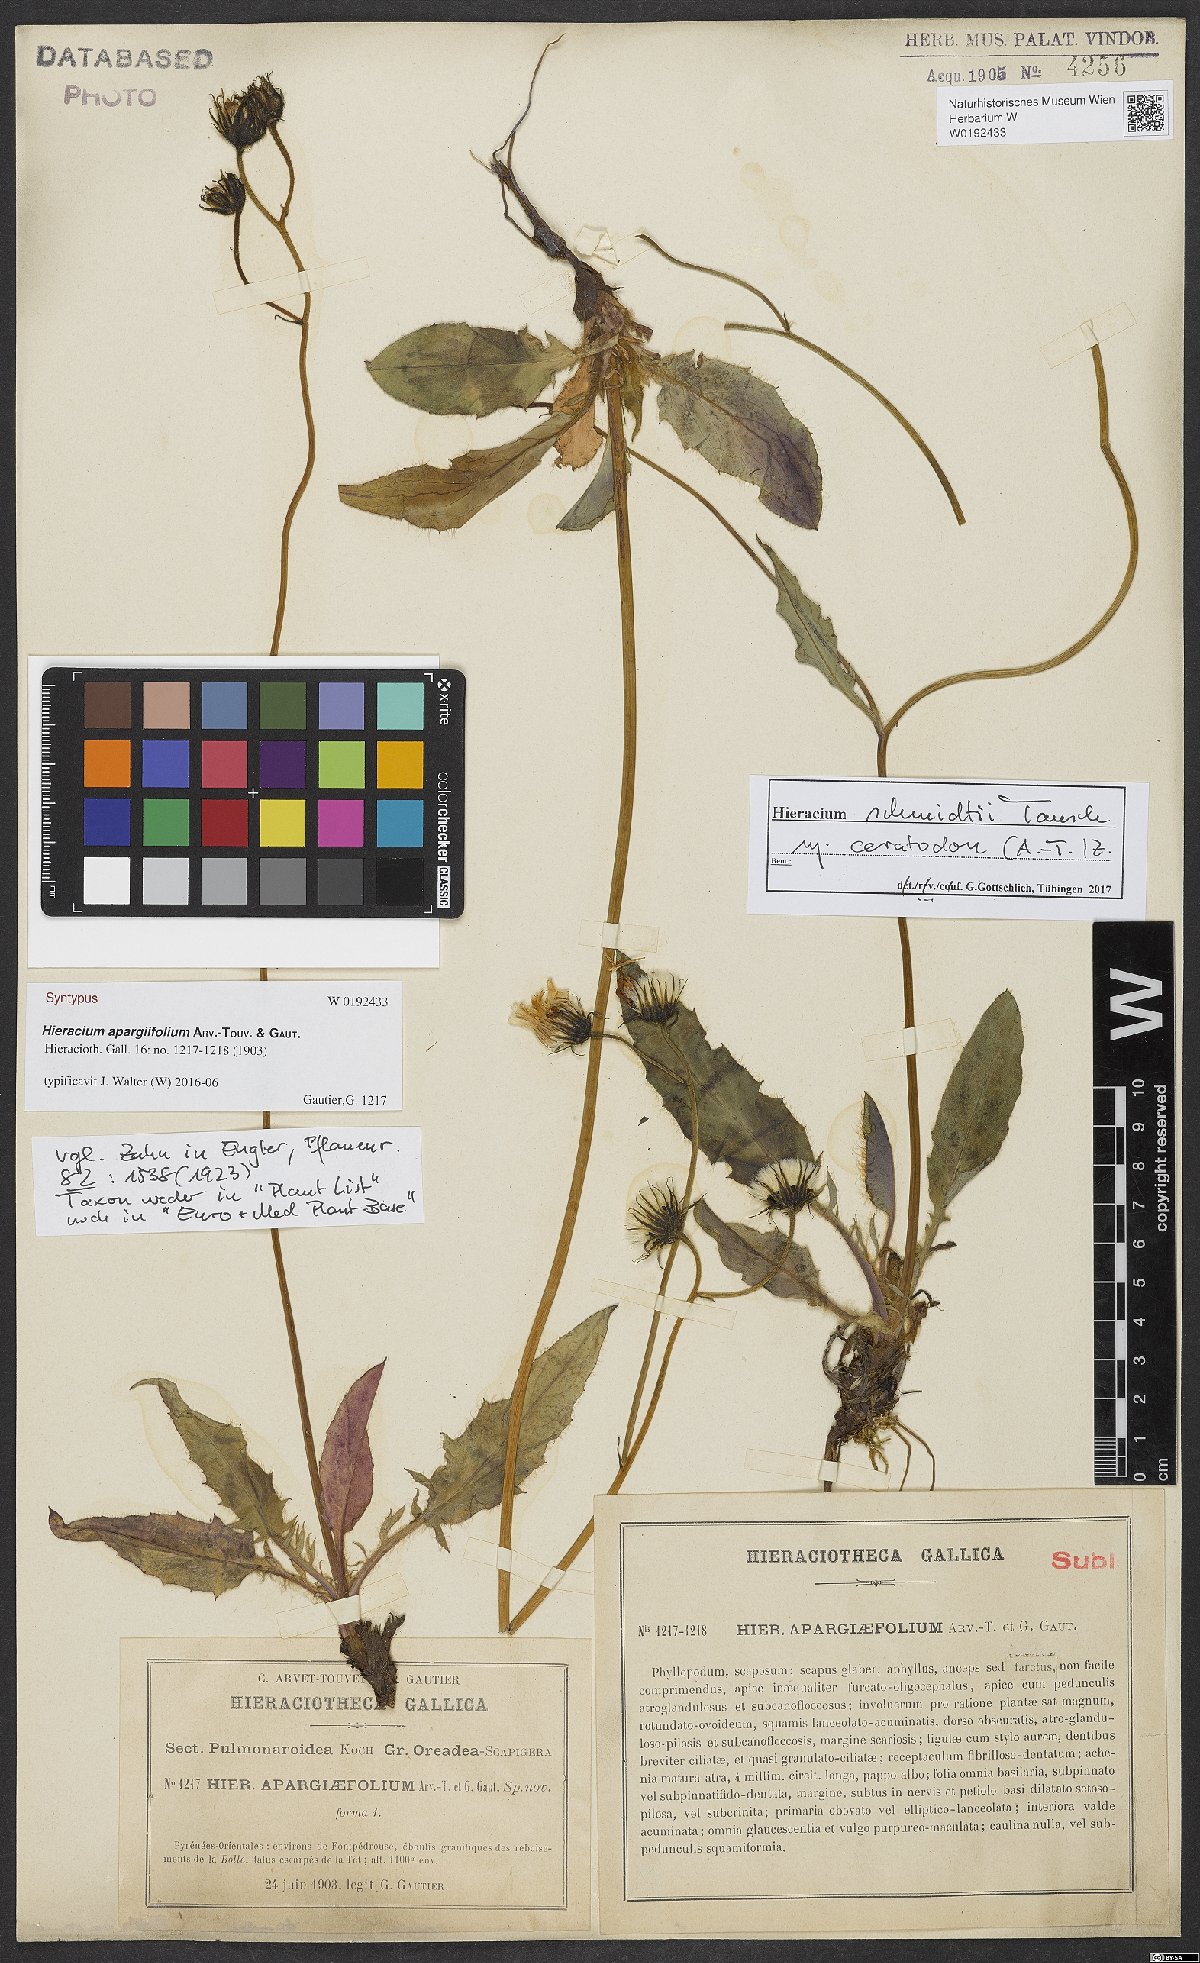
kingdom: Plantae
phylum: Tracheophyta
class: Magnoliopsida
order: Asterales
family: Asteraceae
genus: Hieracium
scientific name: Hieracium schmidtii
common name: Schmidt's hawkweed
